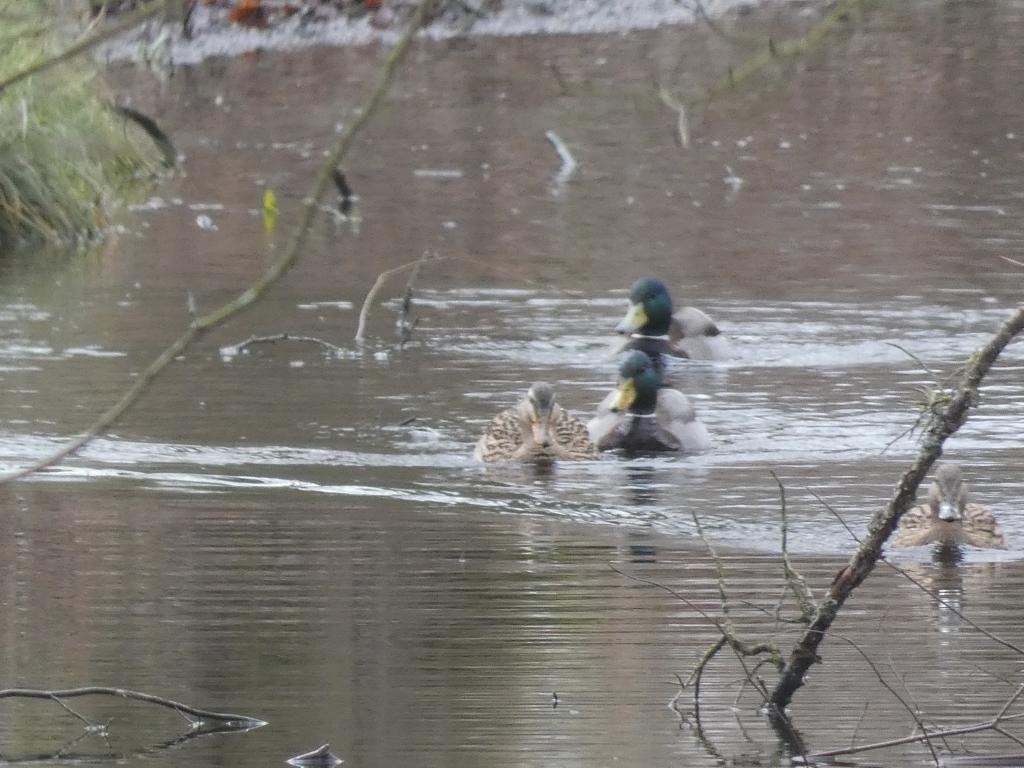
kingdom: Animalia
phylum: Chordata
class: Aves
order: Anseriformes
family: Anatidae
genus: Anas
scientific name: Anas platyrhynchos
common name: Gråand
